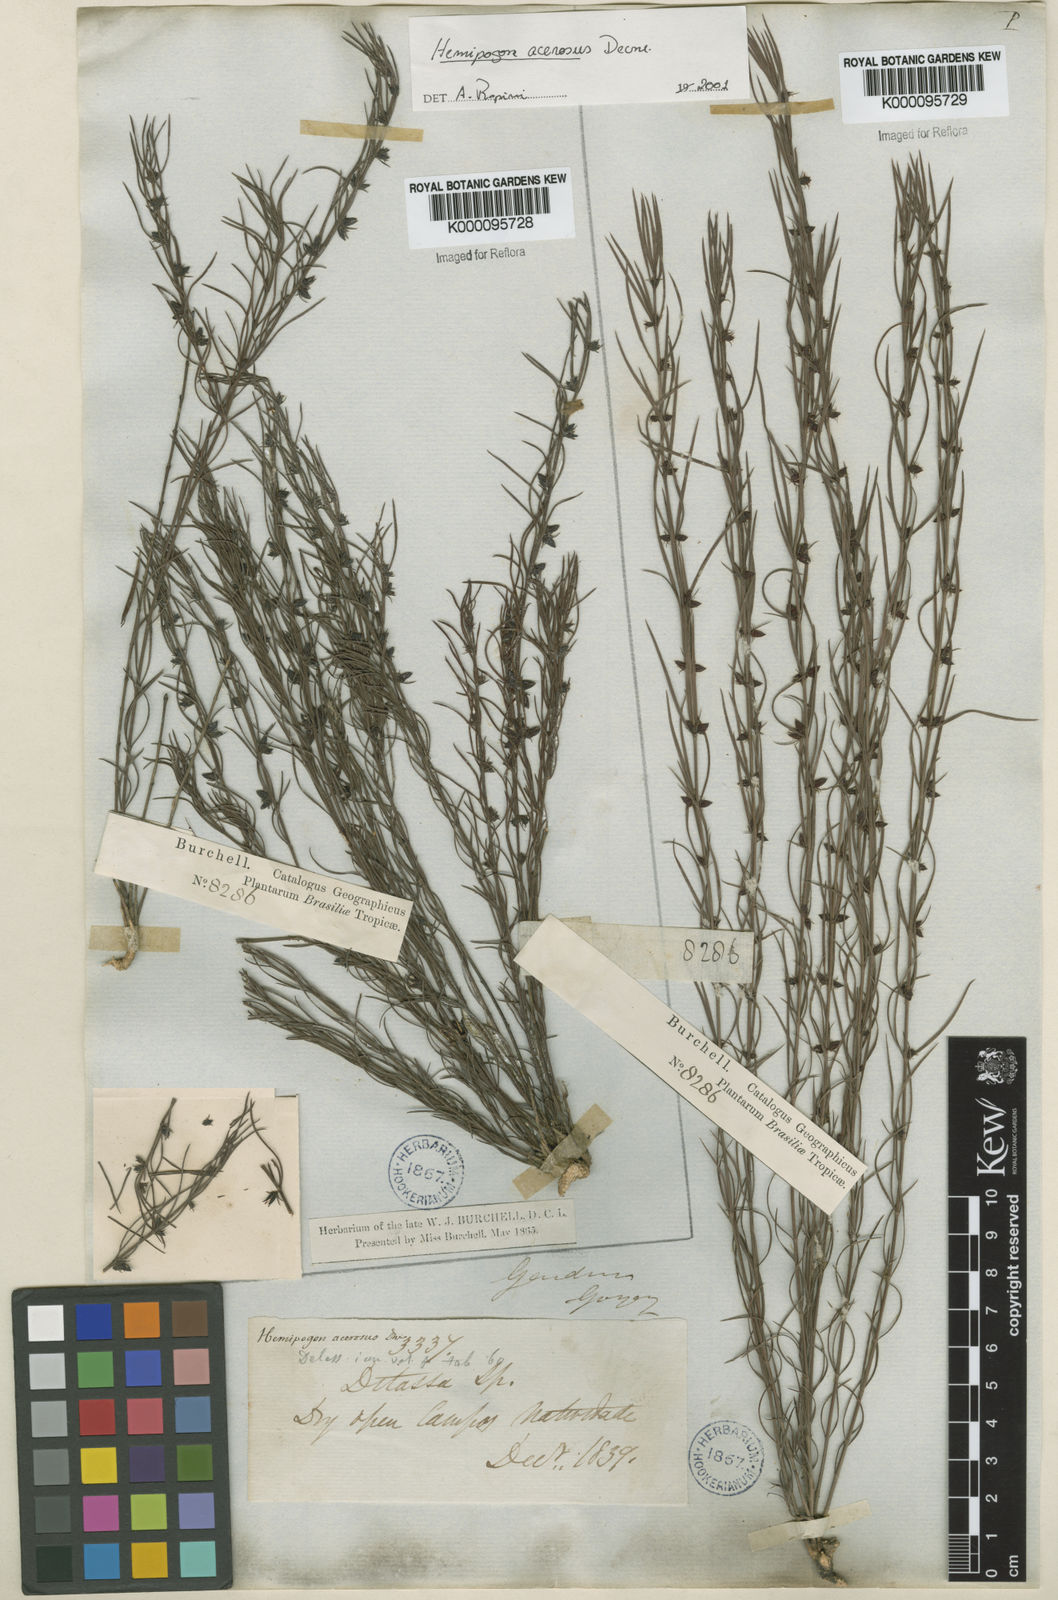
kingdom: Plantae
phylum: Tracheophyta
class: Magnoliopsida
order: Gentianales
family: Apocynaceae
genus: Hemipogon
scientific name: Hemipogon acerosus
